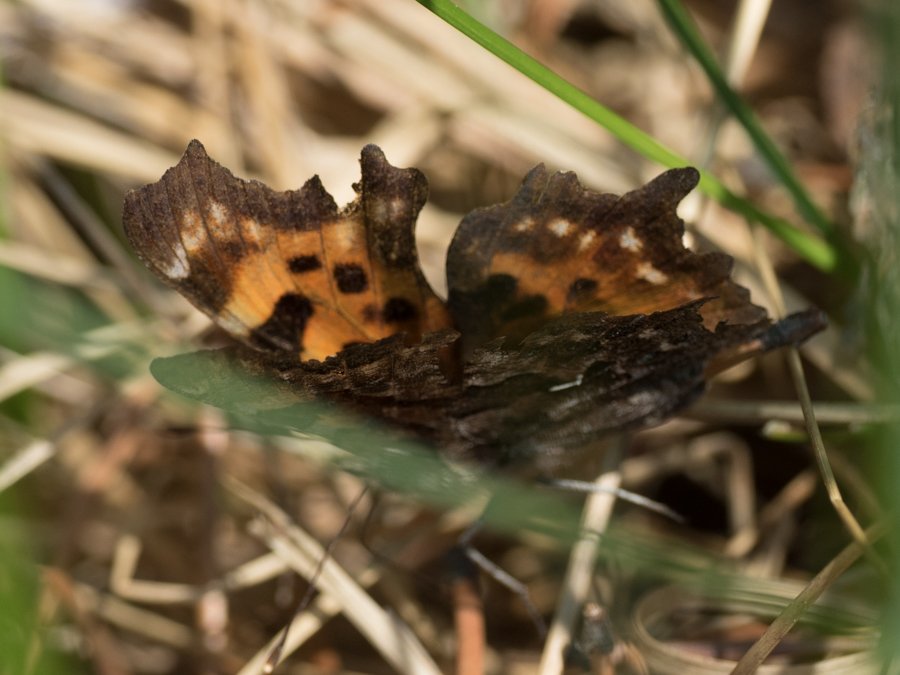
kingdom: Animalia
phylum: Arthropoda
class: Insecta
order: Lepidoptera
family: Nymphalidae
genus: Polygonia
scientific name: Polygonia faunus
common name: Green Comma
